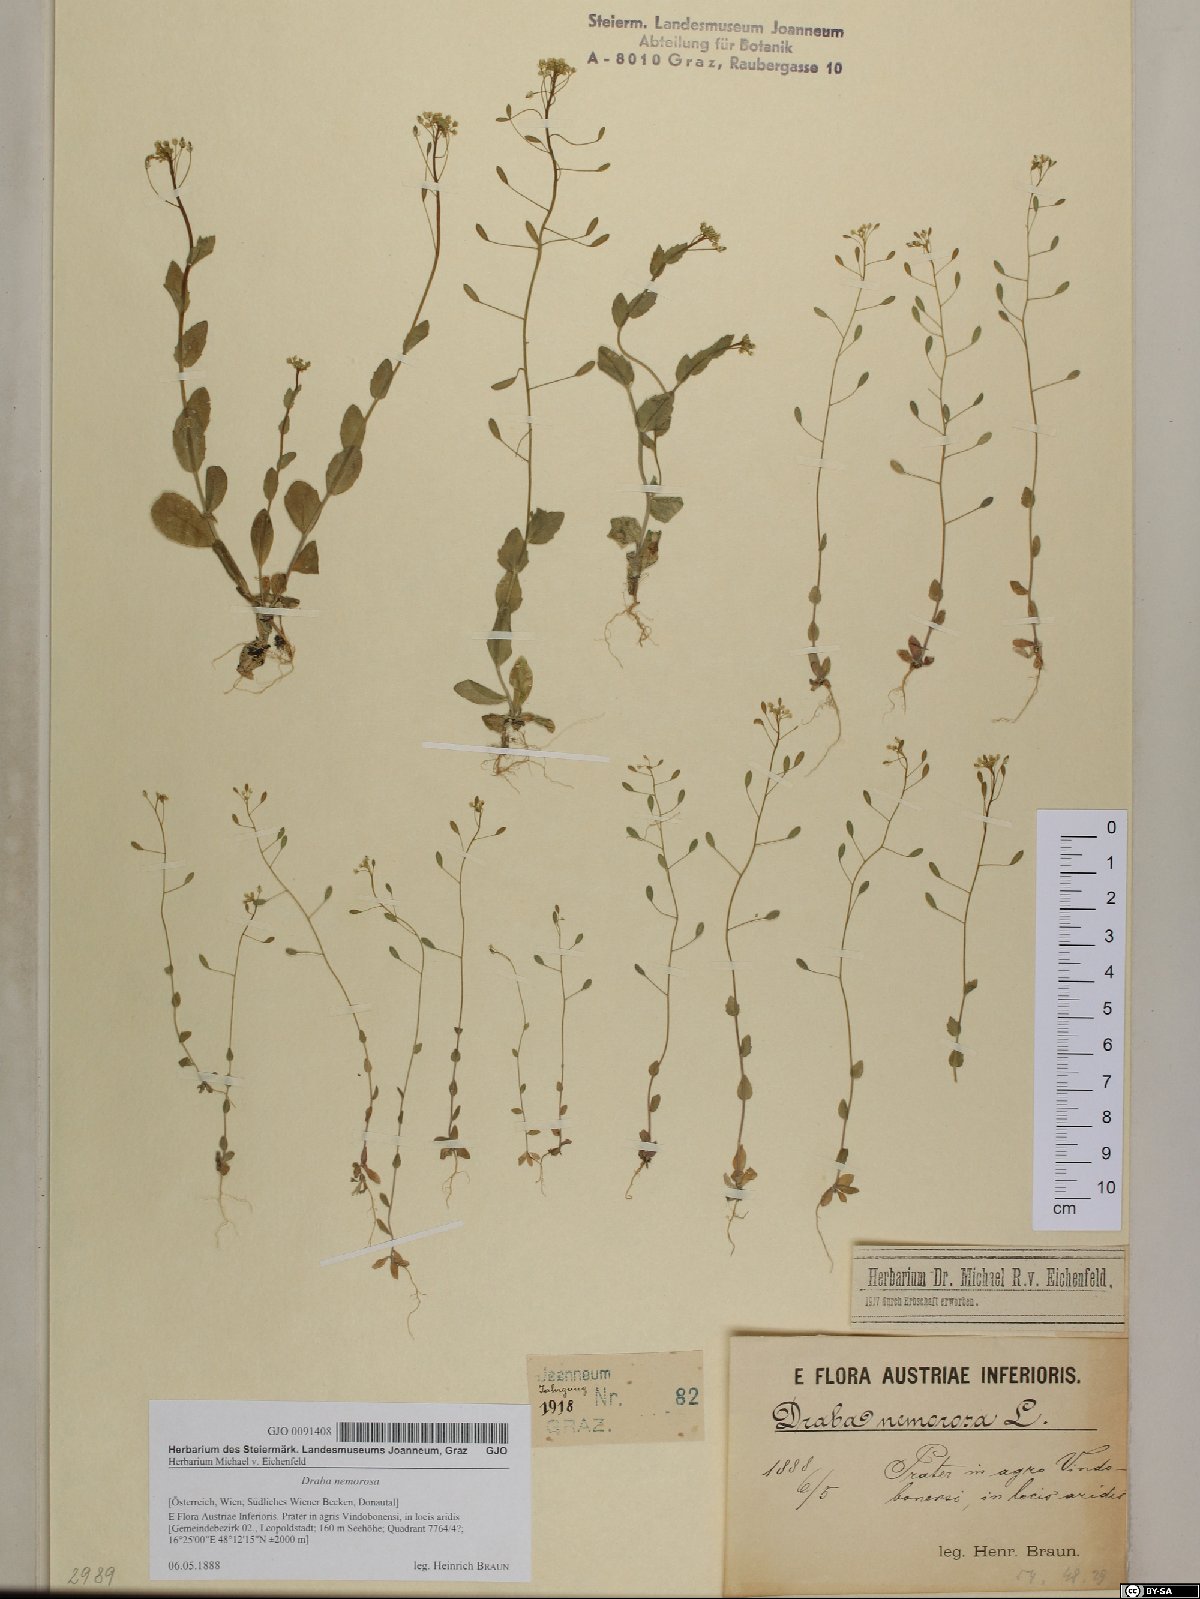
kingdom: Plantae
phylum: Tracheophyta
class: Magnoliopsida
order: Brassicales
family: Brassicaceae
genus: Draba
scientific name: Draba nemorosa
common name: Wood whitlow-grass
